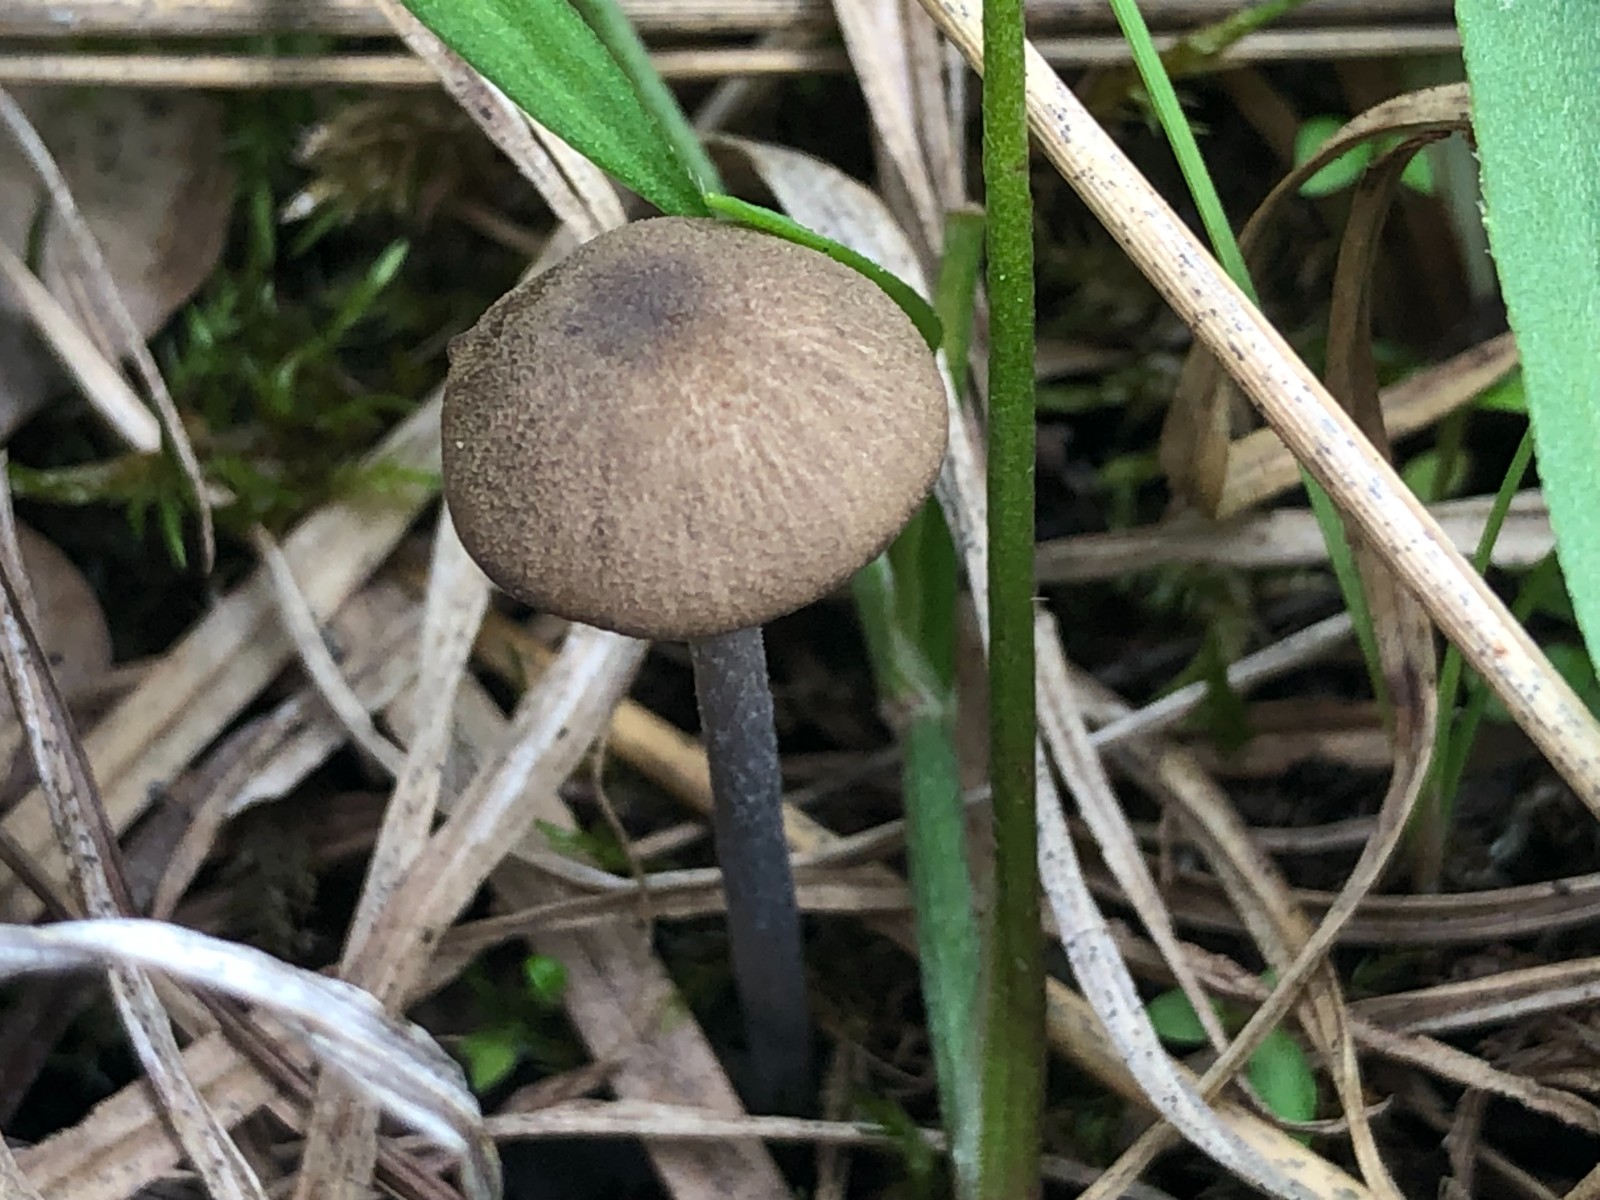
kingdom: Fungi
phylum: Basidiomycota
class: Agaricomycetes
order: Agaricales
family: Entolomataceae
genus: Entoloma
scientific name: Entoloma glaucobasis
